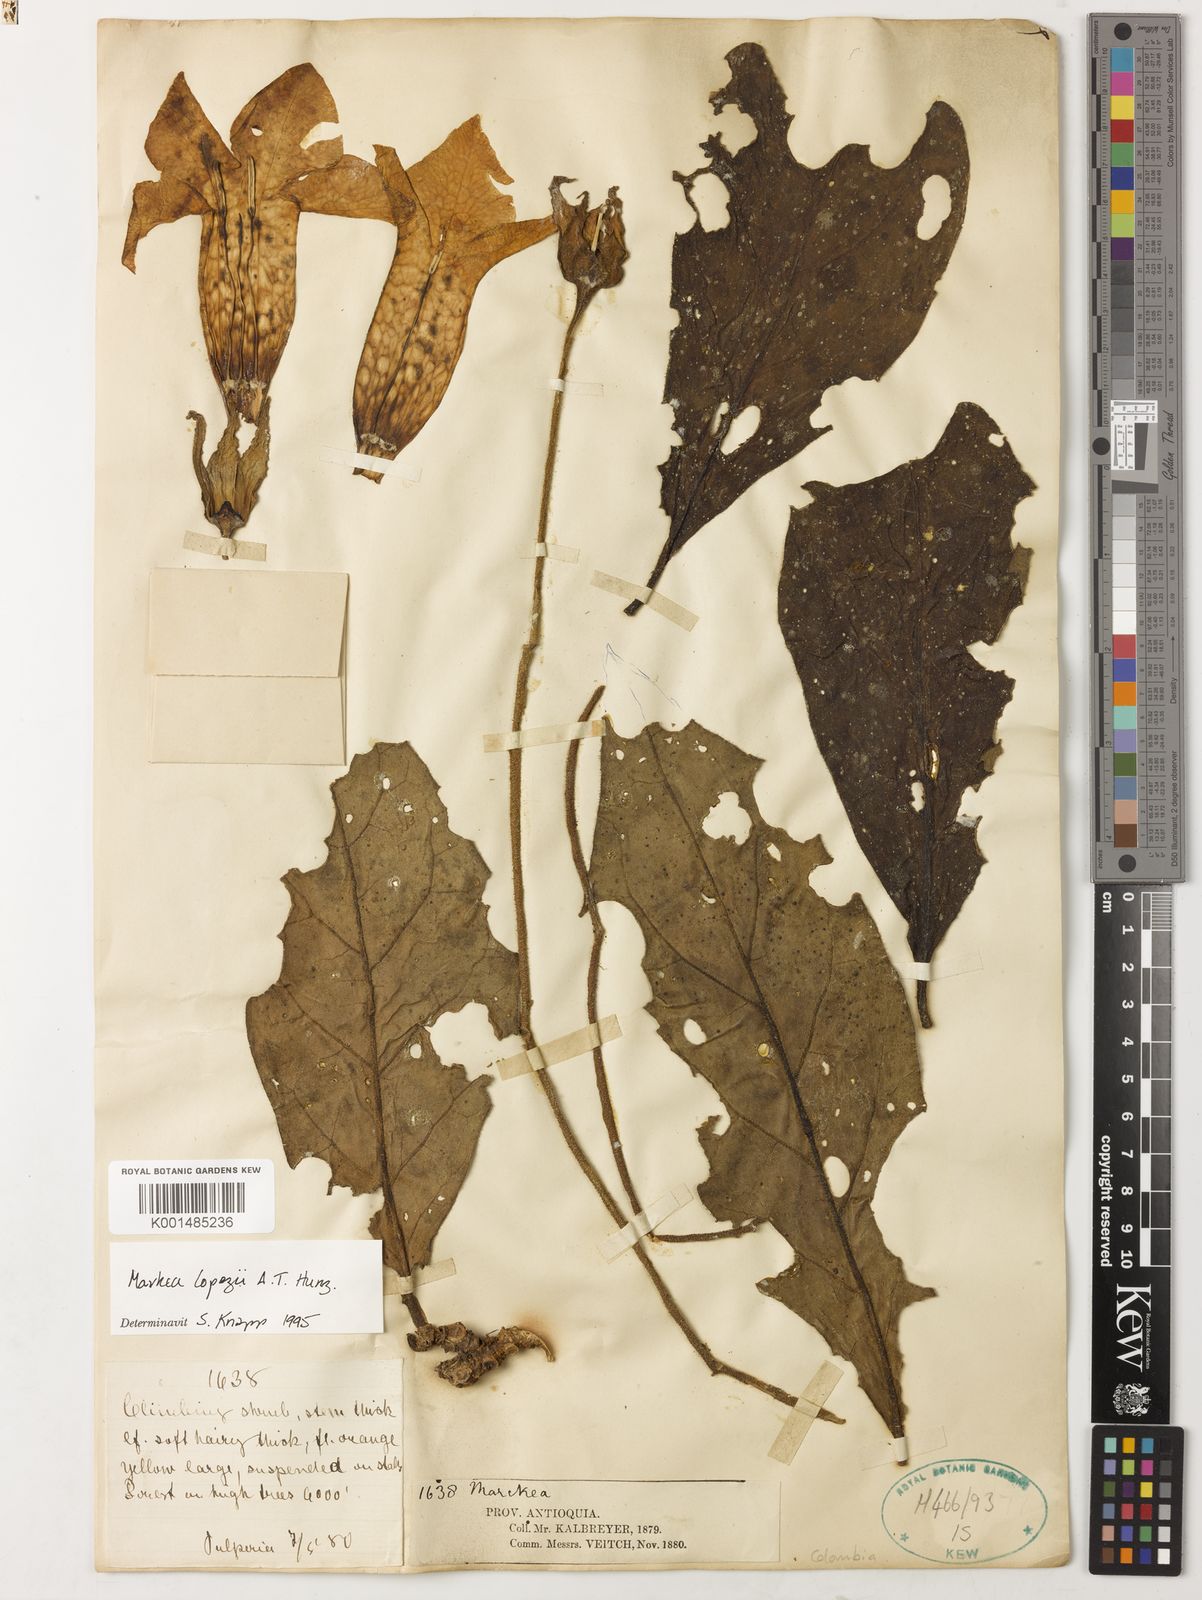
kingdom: Plantae
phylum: Tracheophyta
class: Magnoliopsida
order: Solanales
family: Solanaceae
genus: Doselia
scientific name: Doselia lopezii
